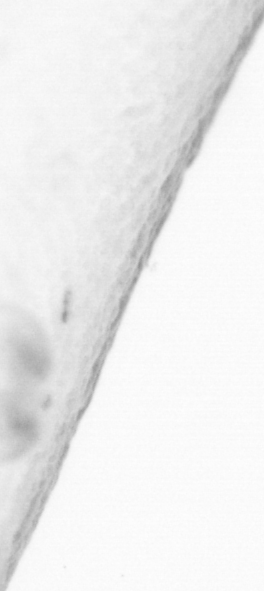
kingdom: Animalia
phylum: Chordata
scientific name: Chordata
